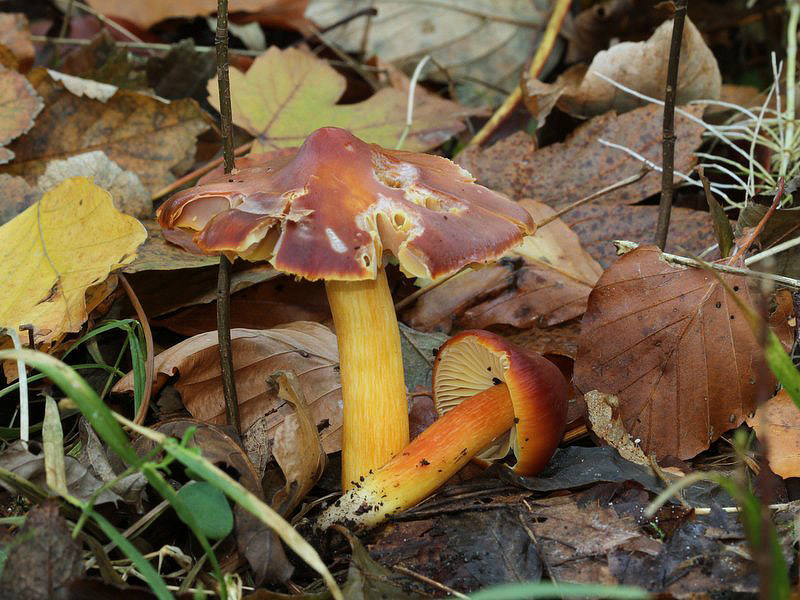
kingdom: Fungi
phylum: Basidiomycota
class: Agaricomycetes
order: Agaricales
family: Hygrophoraceae
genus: Hygrocybe
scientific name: Hygrocybe punicea
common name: skarlagen-vokshat
